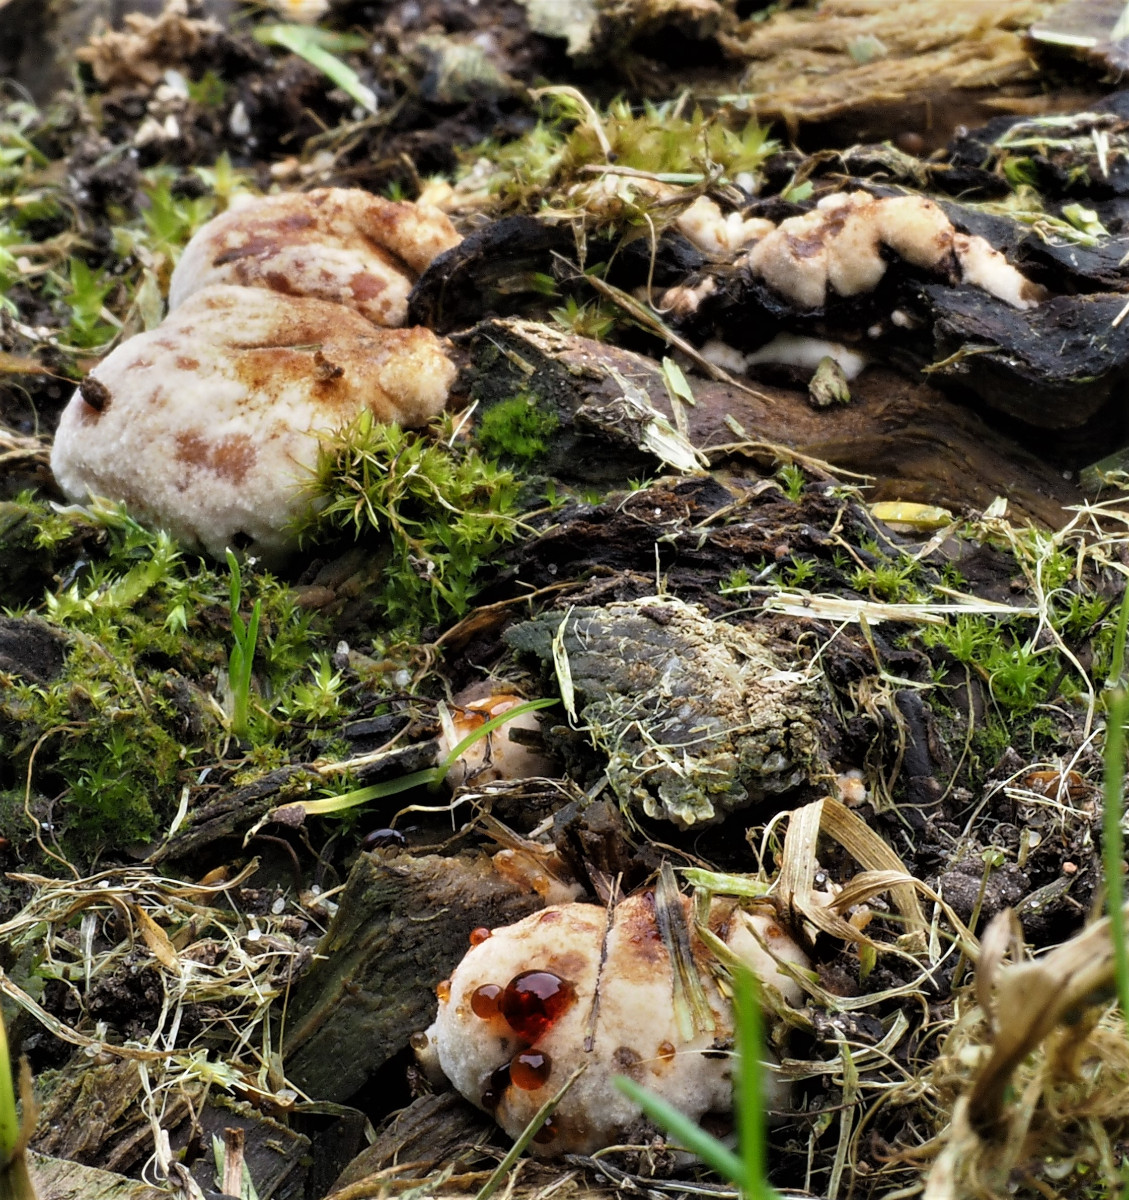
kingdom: Fungi
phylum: Basidiomycota
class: Agaricomycetes
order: Polyporales
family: Ischnodermataceae
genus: Ischnoderma
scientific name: Ischnoderma benzoinum
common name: gran-tjæreporesvamp
